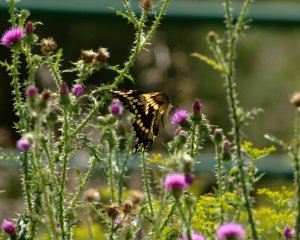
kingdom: Animalia
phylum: Arthropoda
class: Insecta
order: Lepidoptera
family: Papilionidae
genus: Papilio
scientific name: Papilio cresphontes
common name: Eastern Giant Swallowtail
